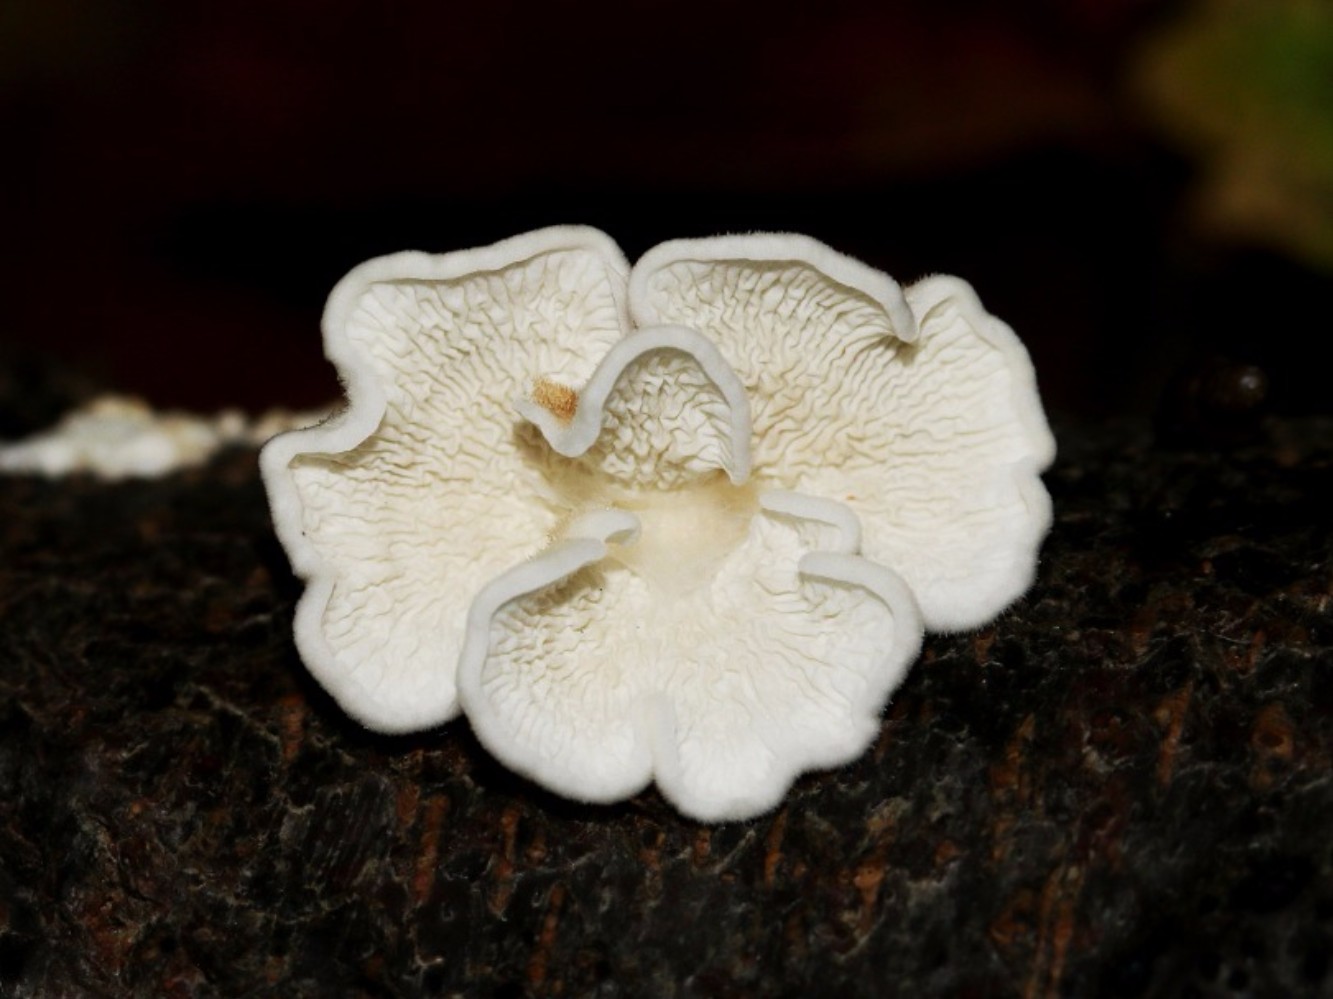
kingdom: Fungi
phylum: Basidiomycota
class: Agaricomycetes
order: Amylocorticiales
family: Amylocorticiaceae
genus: Plicaturopsis
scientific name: Plicaturopsis crispa
